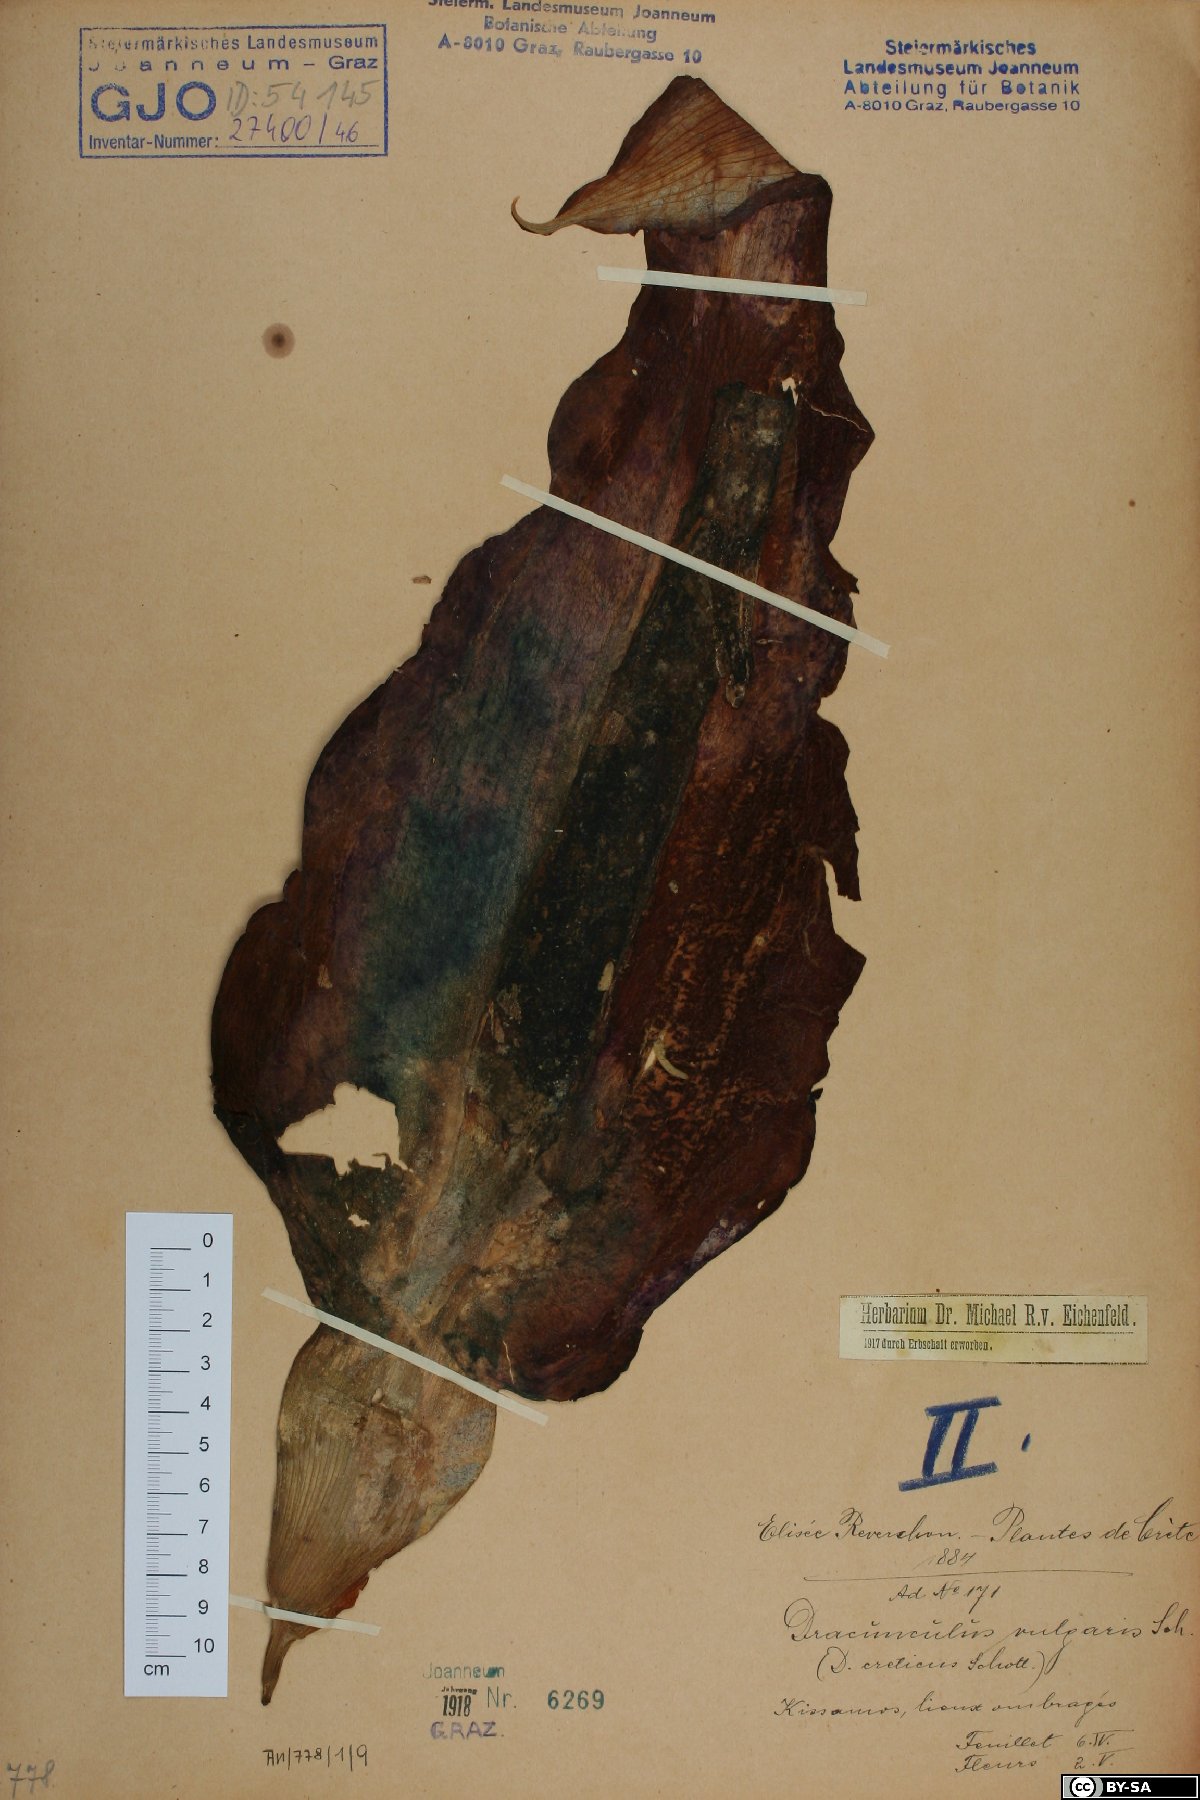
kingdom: Plantae
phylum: Tracheophyta
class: Liliopsida
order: Alismatales
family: Araceae
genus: Dracunculus
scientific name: Dracunculus vulgaris
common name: Dragon arum
